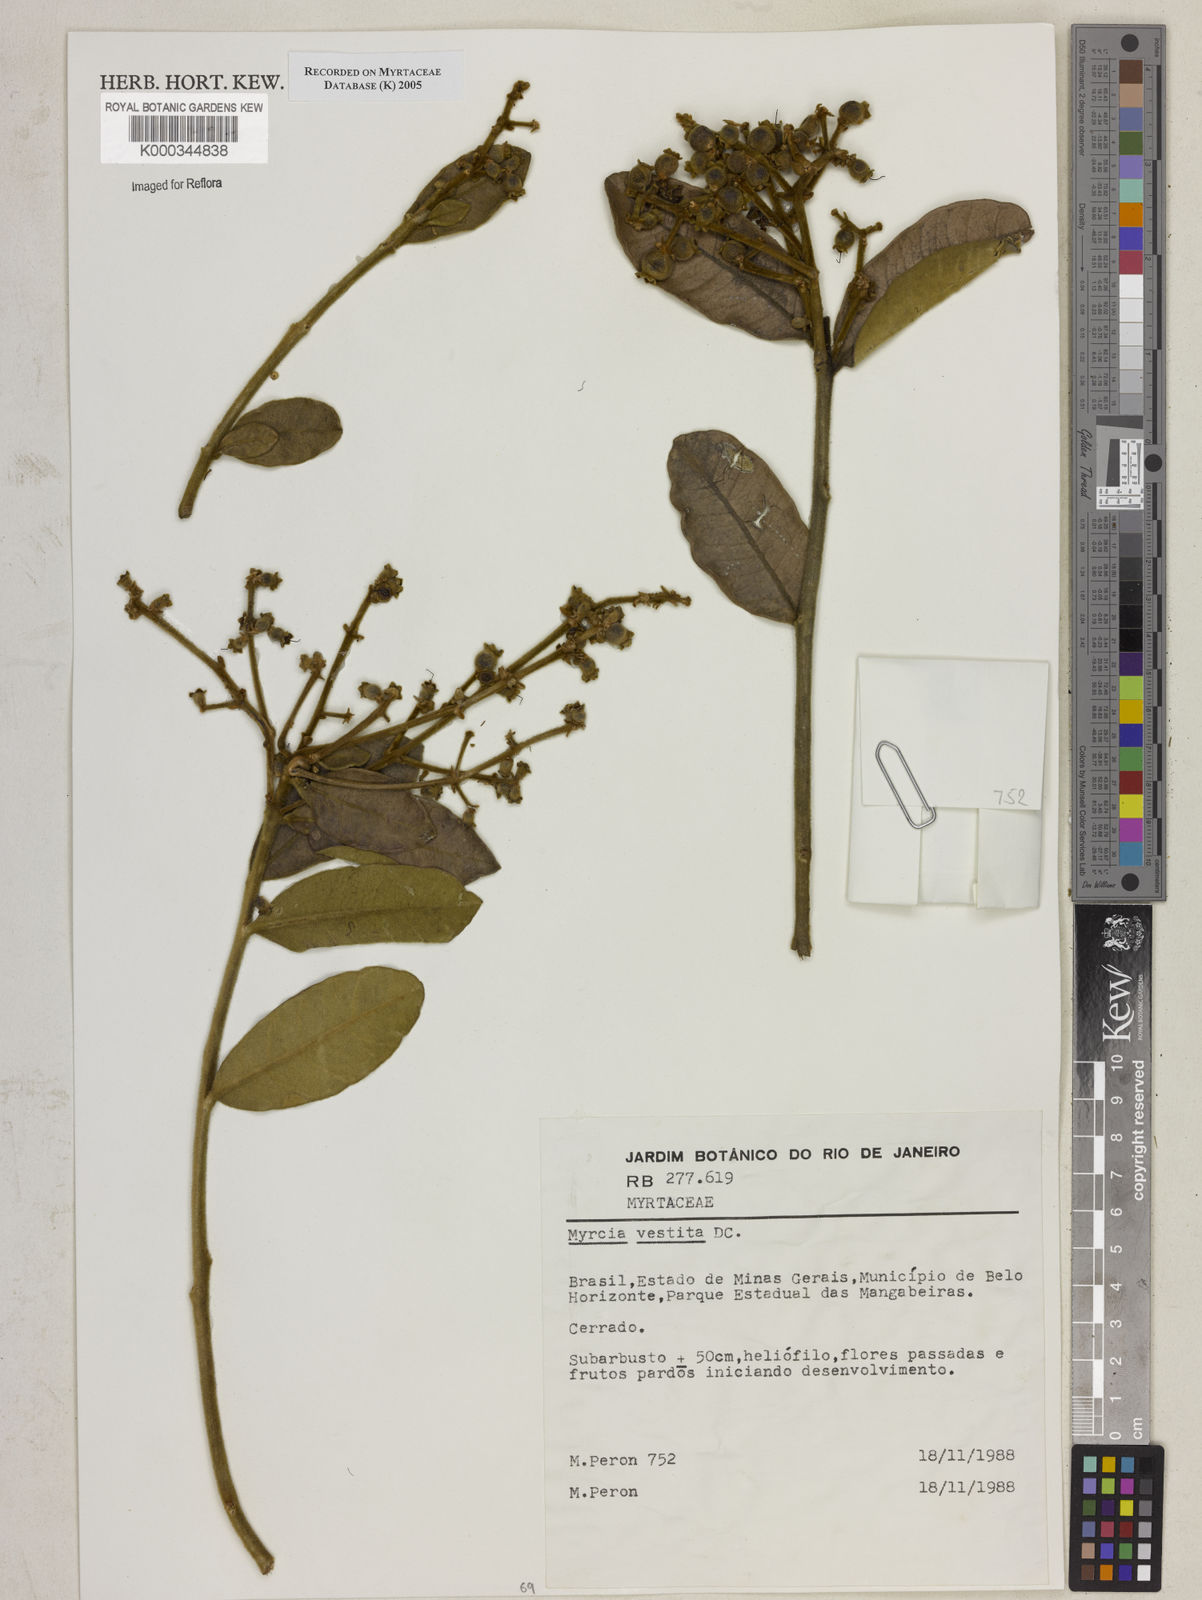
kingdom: Plantae
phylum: Tracheophyta
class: Magnoliopsida
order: Myrtales
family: Myrtaceae
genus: Myrcia
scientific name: Myrcia vestita
